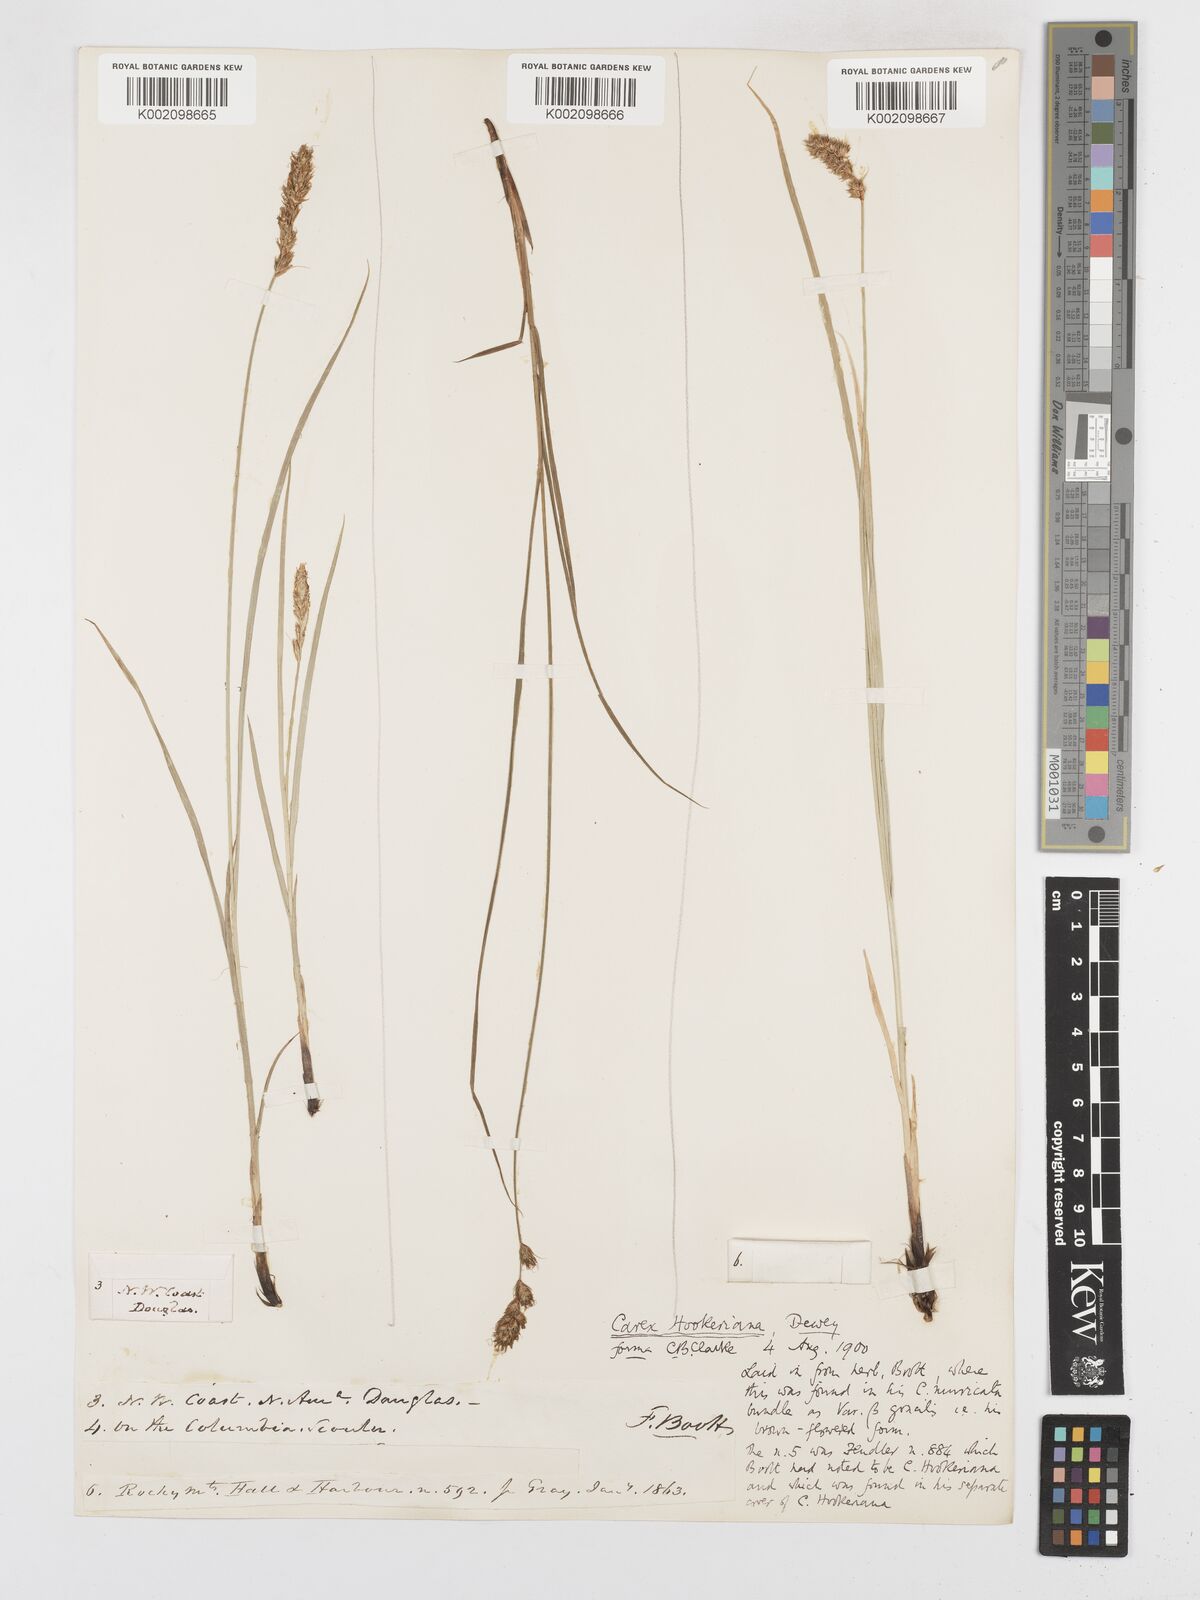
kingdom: Plantae
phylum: Tracheophyta
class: Liliopsida
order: Poales
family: Cyperaceae
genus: Carex
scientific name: Carex tumulicola
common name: Splitawn sedge
